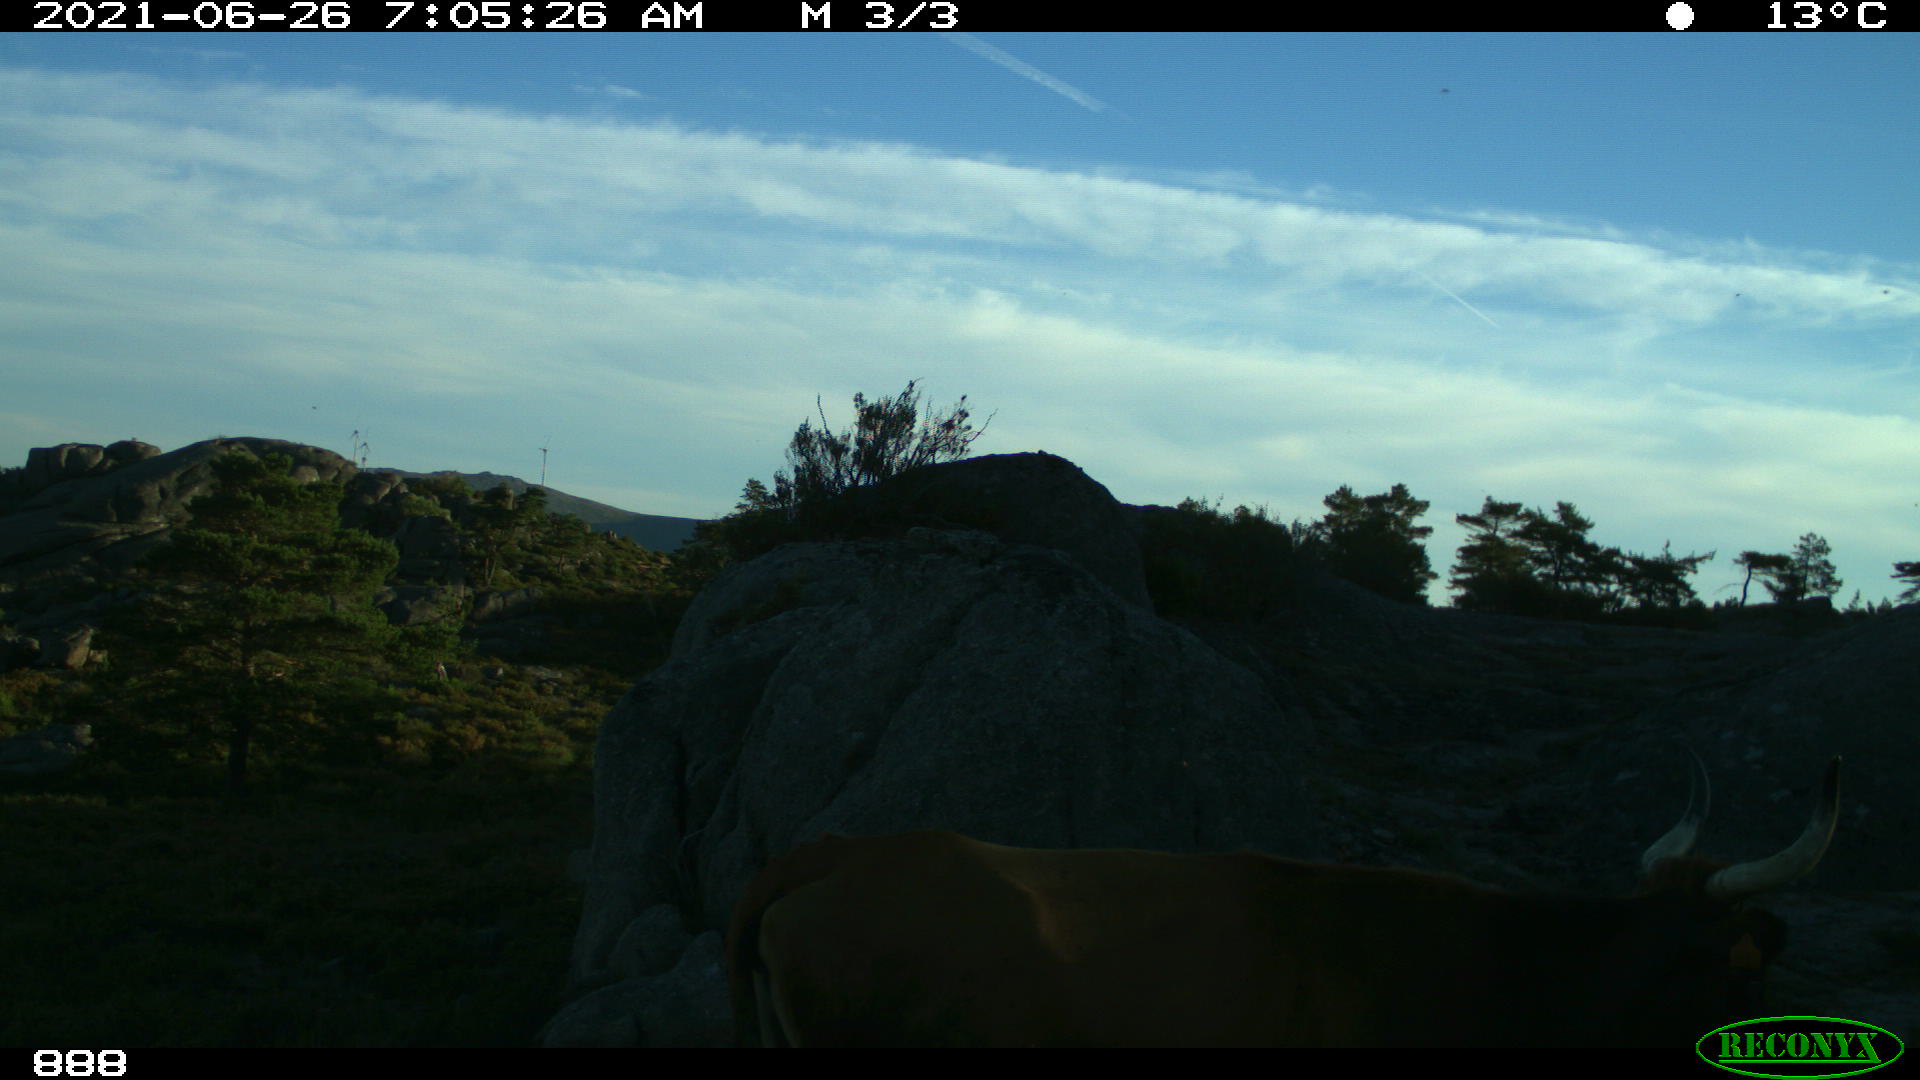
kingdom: Animalia
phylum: Chordata
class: Mammalia
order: Artiodactyla
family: Bovidae
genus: Bos
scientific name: Bos taurus
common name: Domesticated cattle
